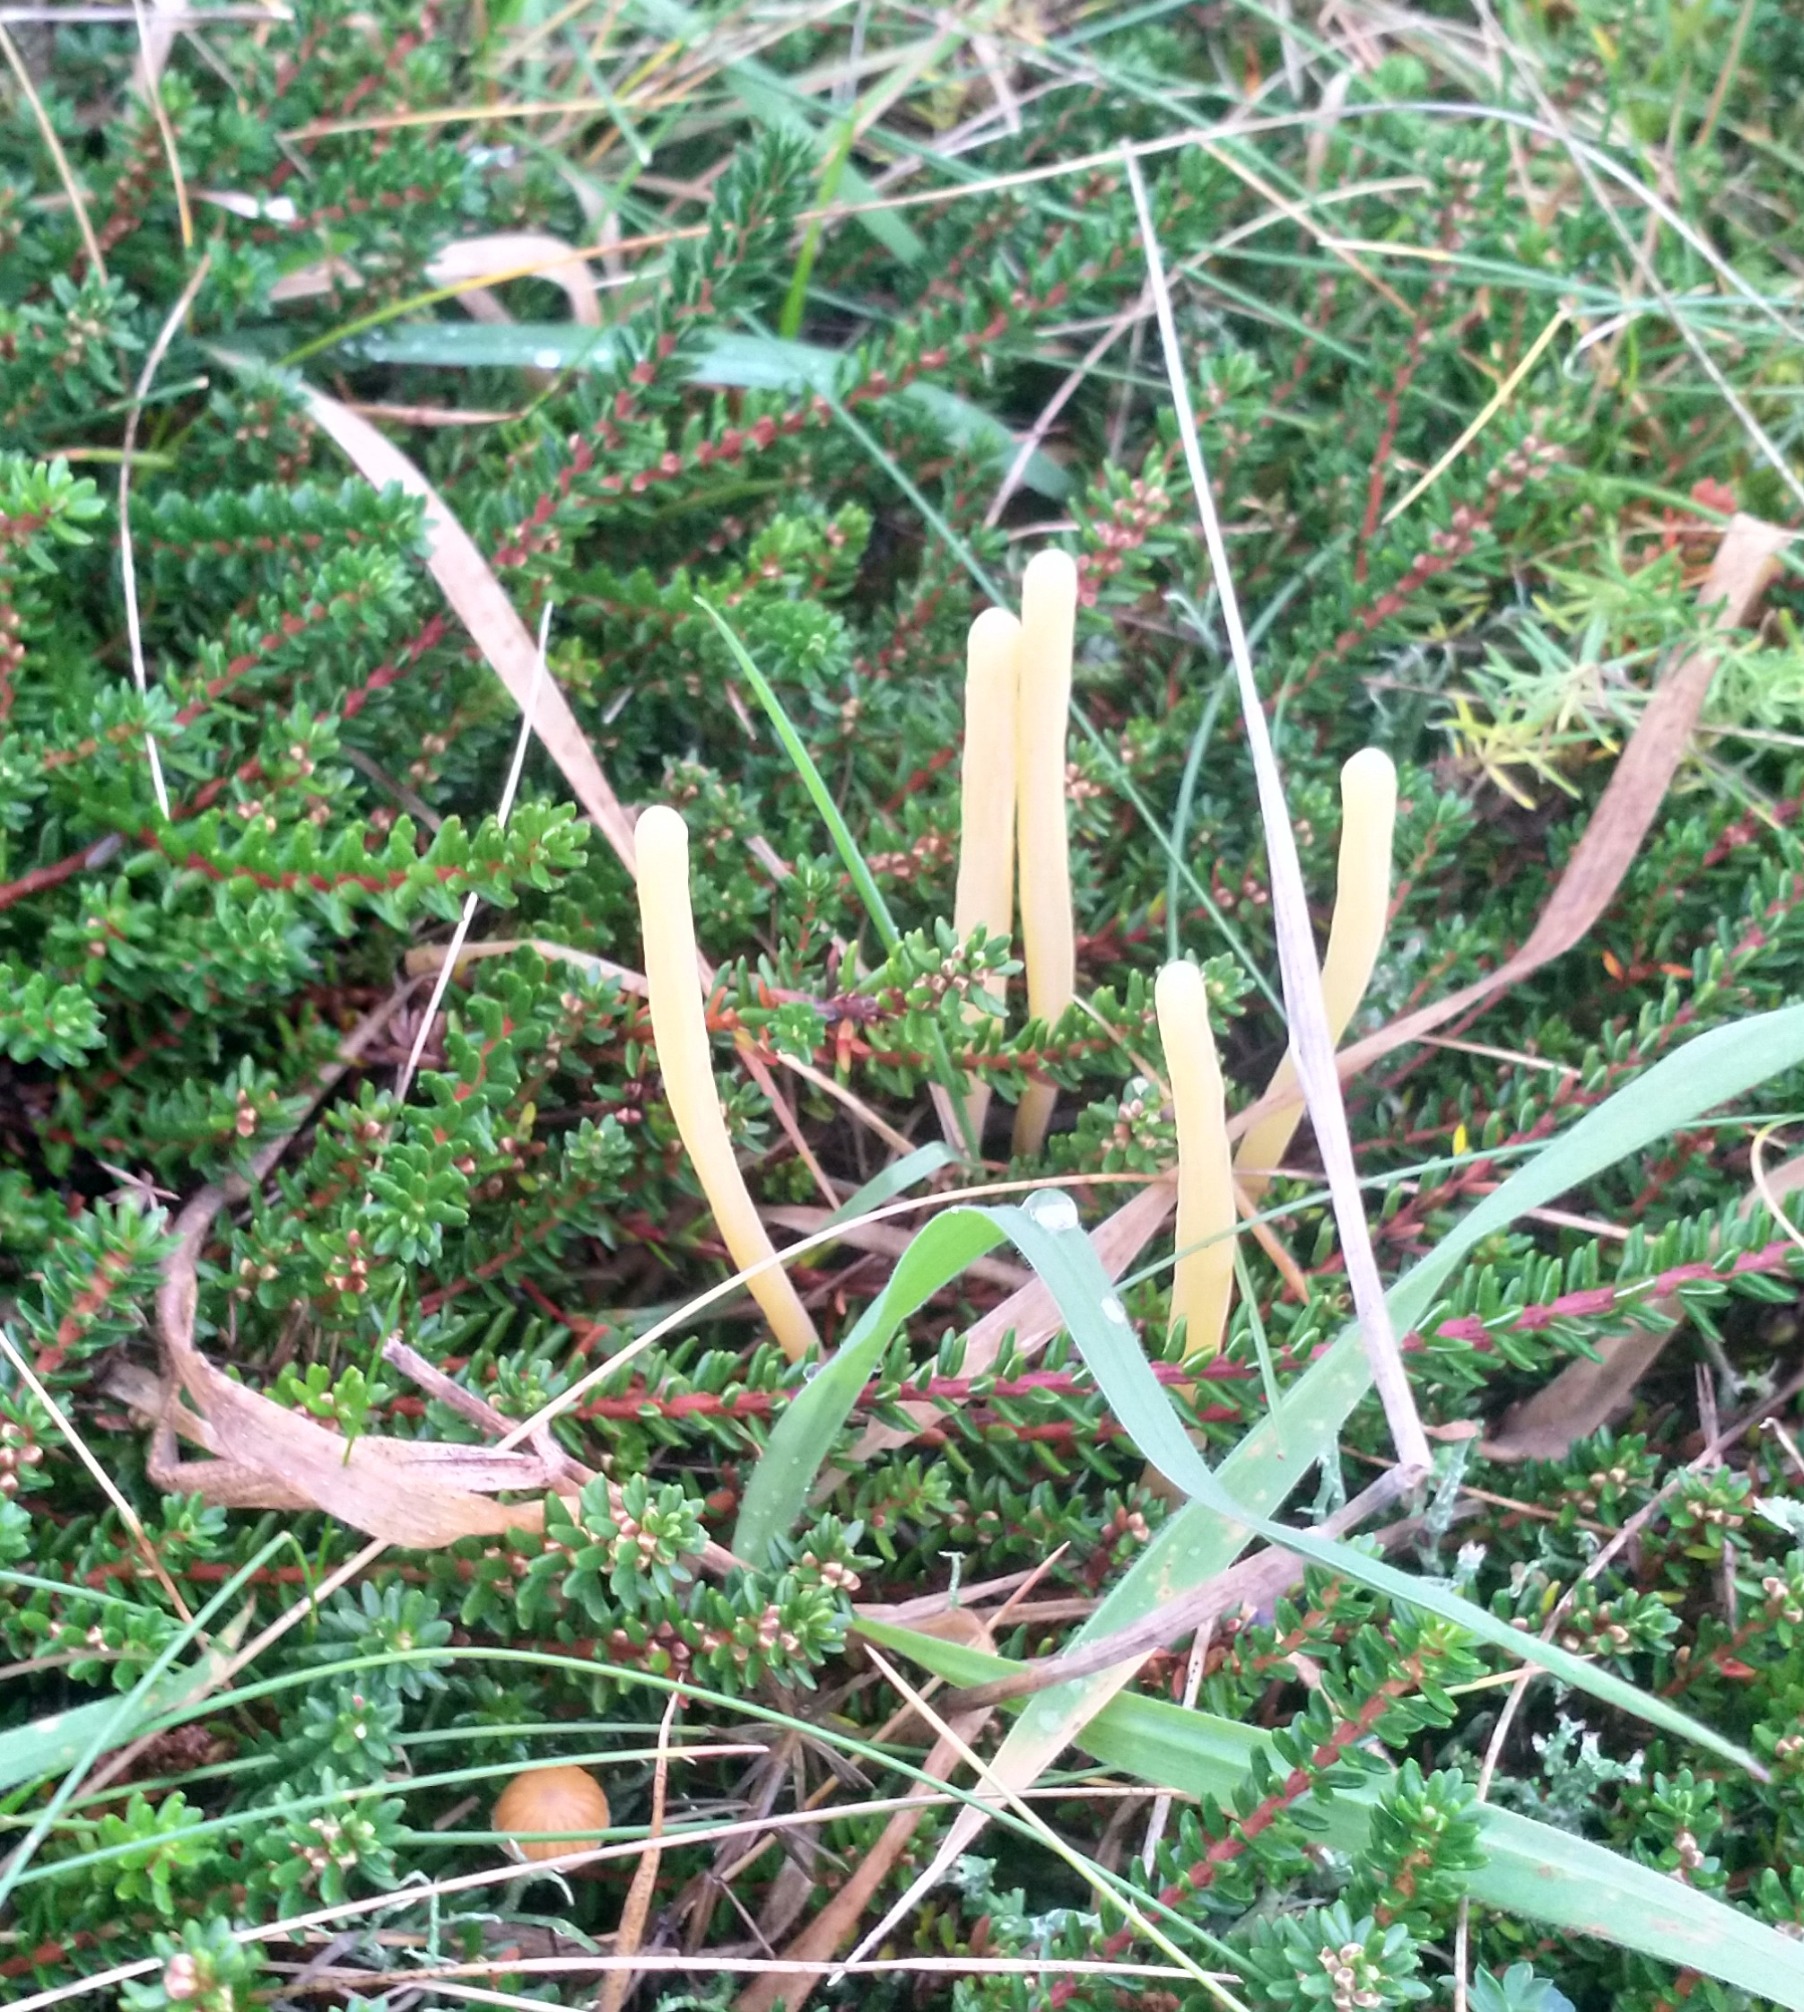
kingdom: Fungi
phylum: Basidiomycota
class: Agaricomycetes
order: Agaricales
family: Clavariaceae
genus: Clavaria
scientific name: Clavaria argillacea
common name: Lerfarvet køllesvamp
